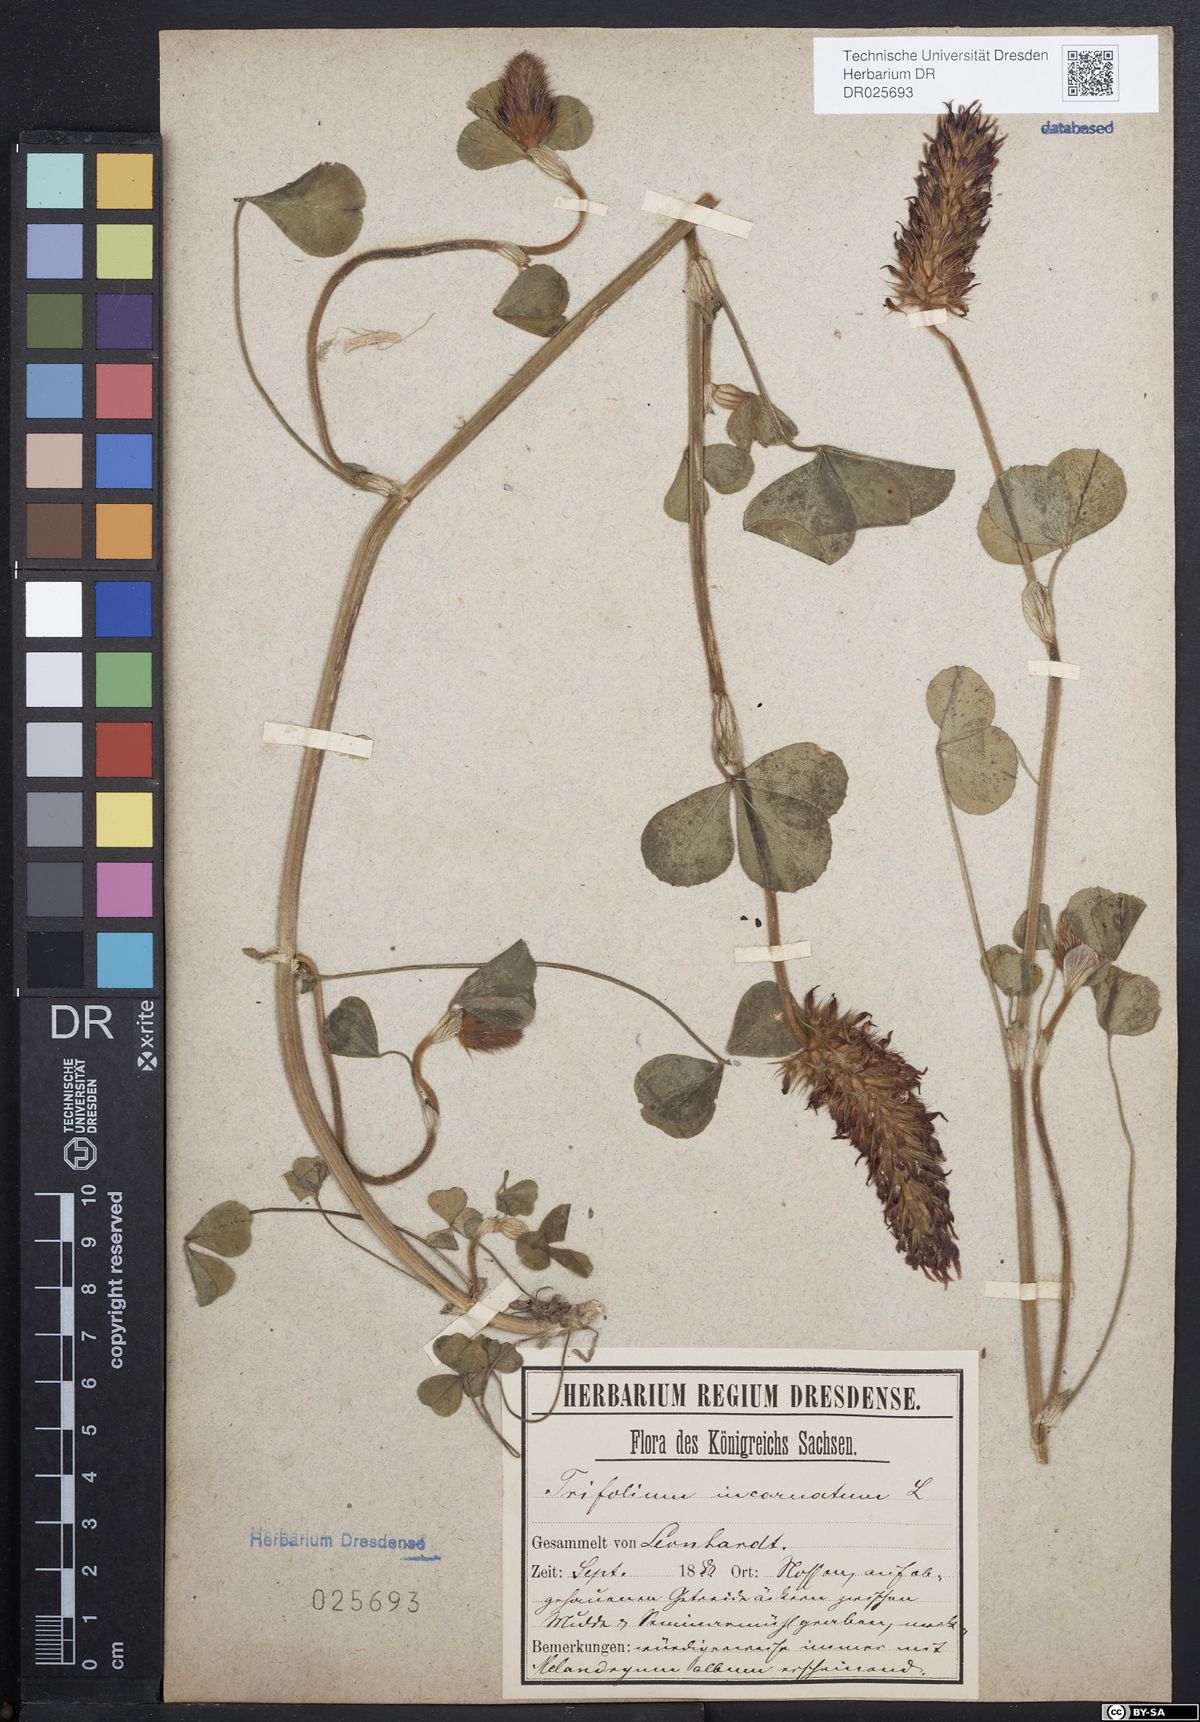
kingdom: Plantae
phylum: Tracheophyta
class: Magnoliopsida
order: Fabales
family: Fabaceae
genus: Trifolium
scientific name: Trifolium incarnatum
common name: Crimson clover
